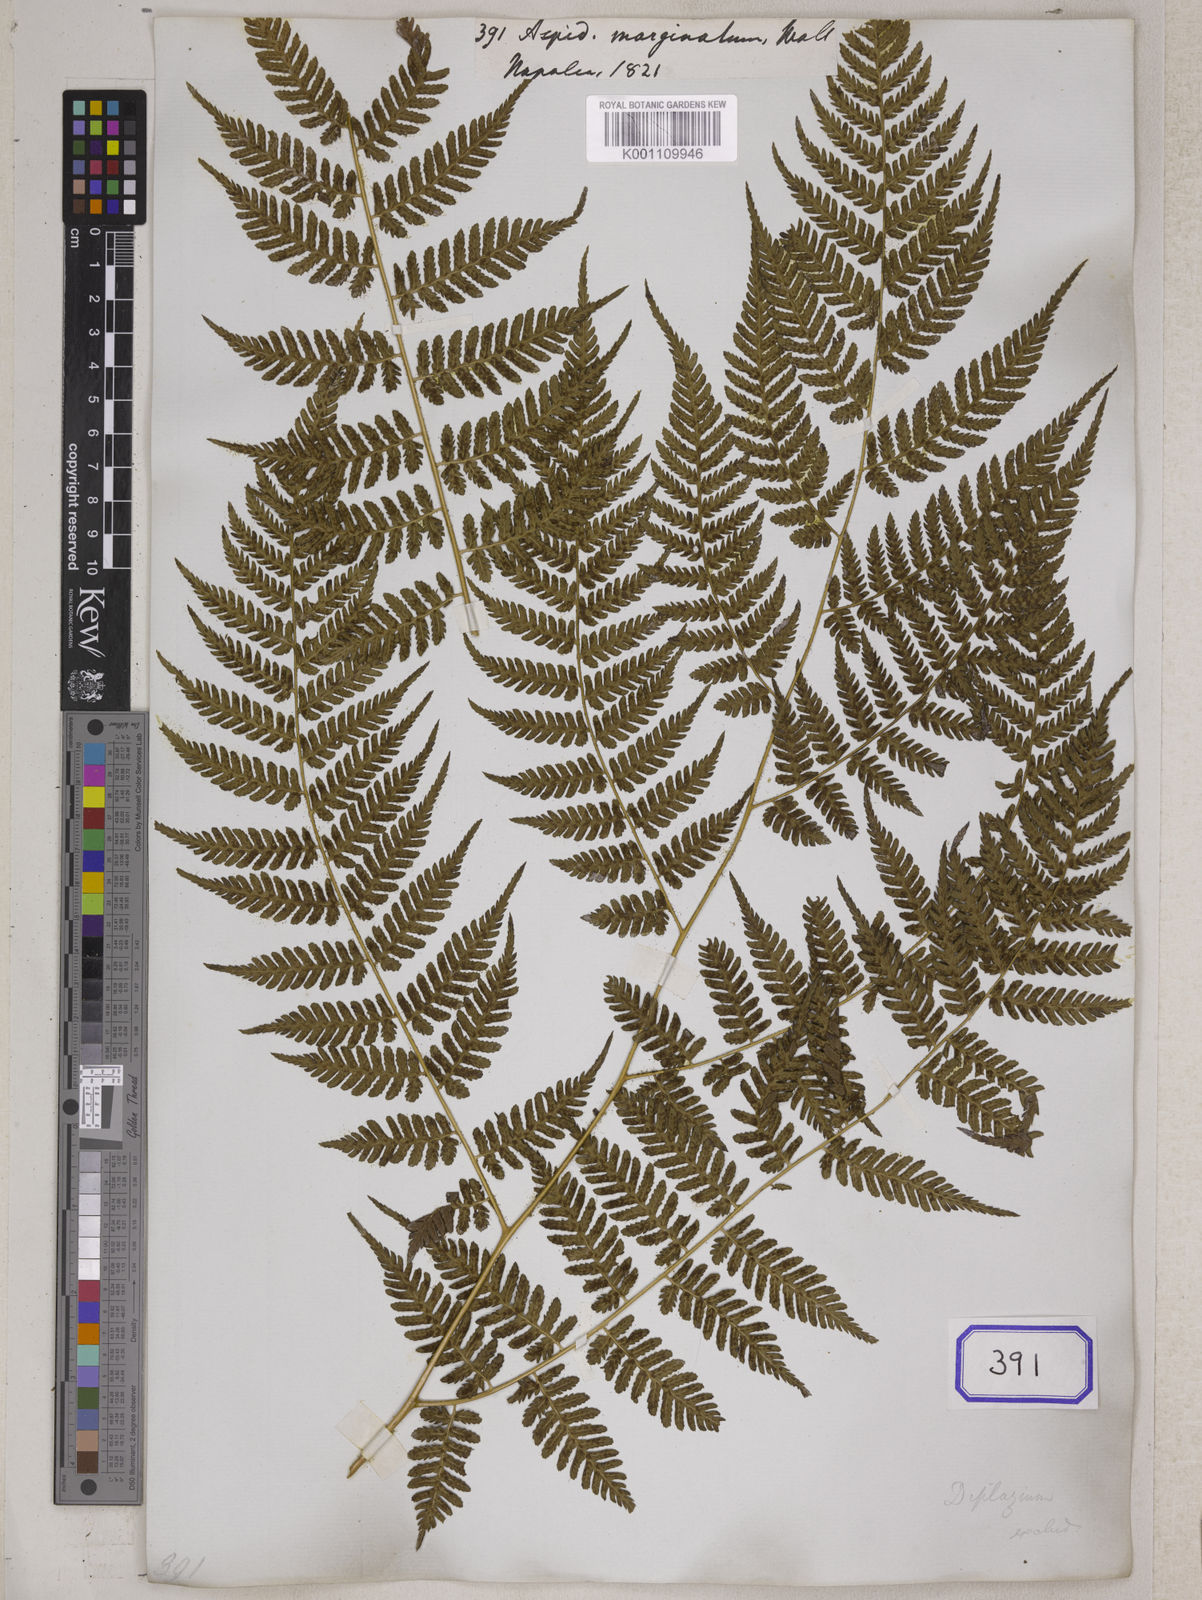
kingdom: Plantae
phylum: Tracheophyta
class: Polypodiopsida
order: Polypodiales
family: Tectariaceae
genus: Tectaria
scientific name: Tectaria Aspidium spec
